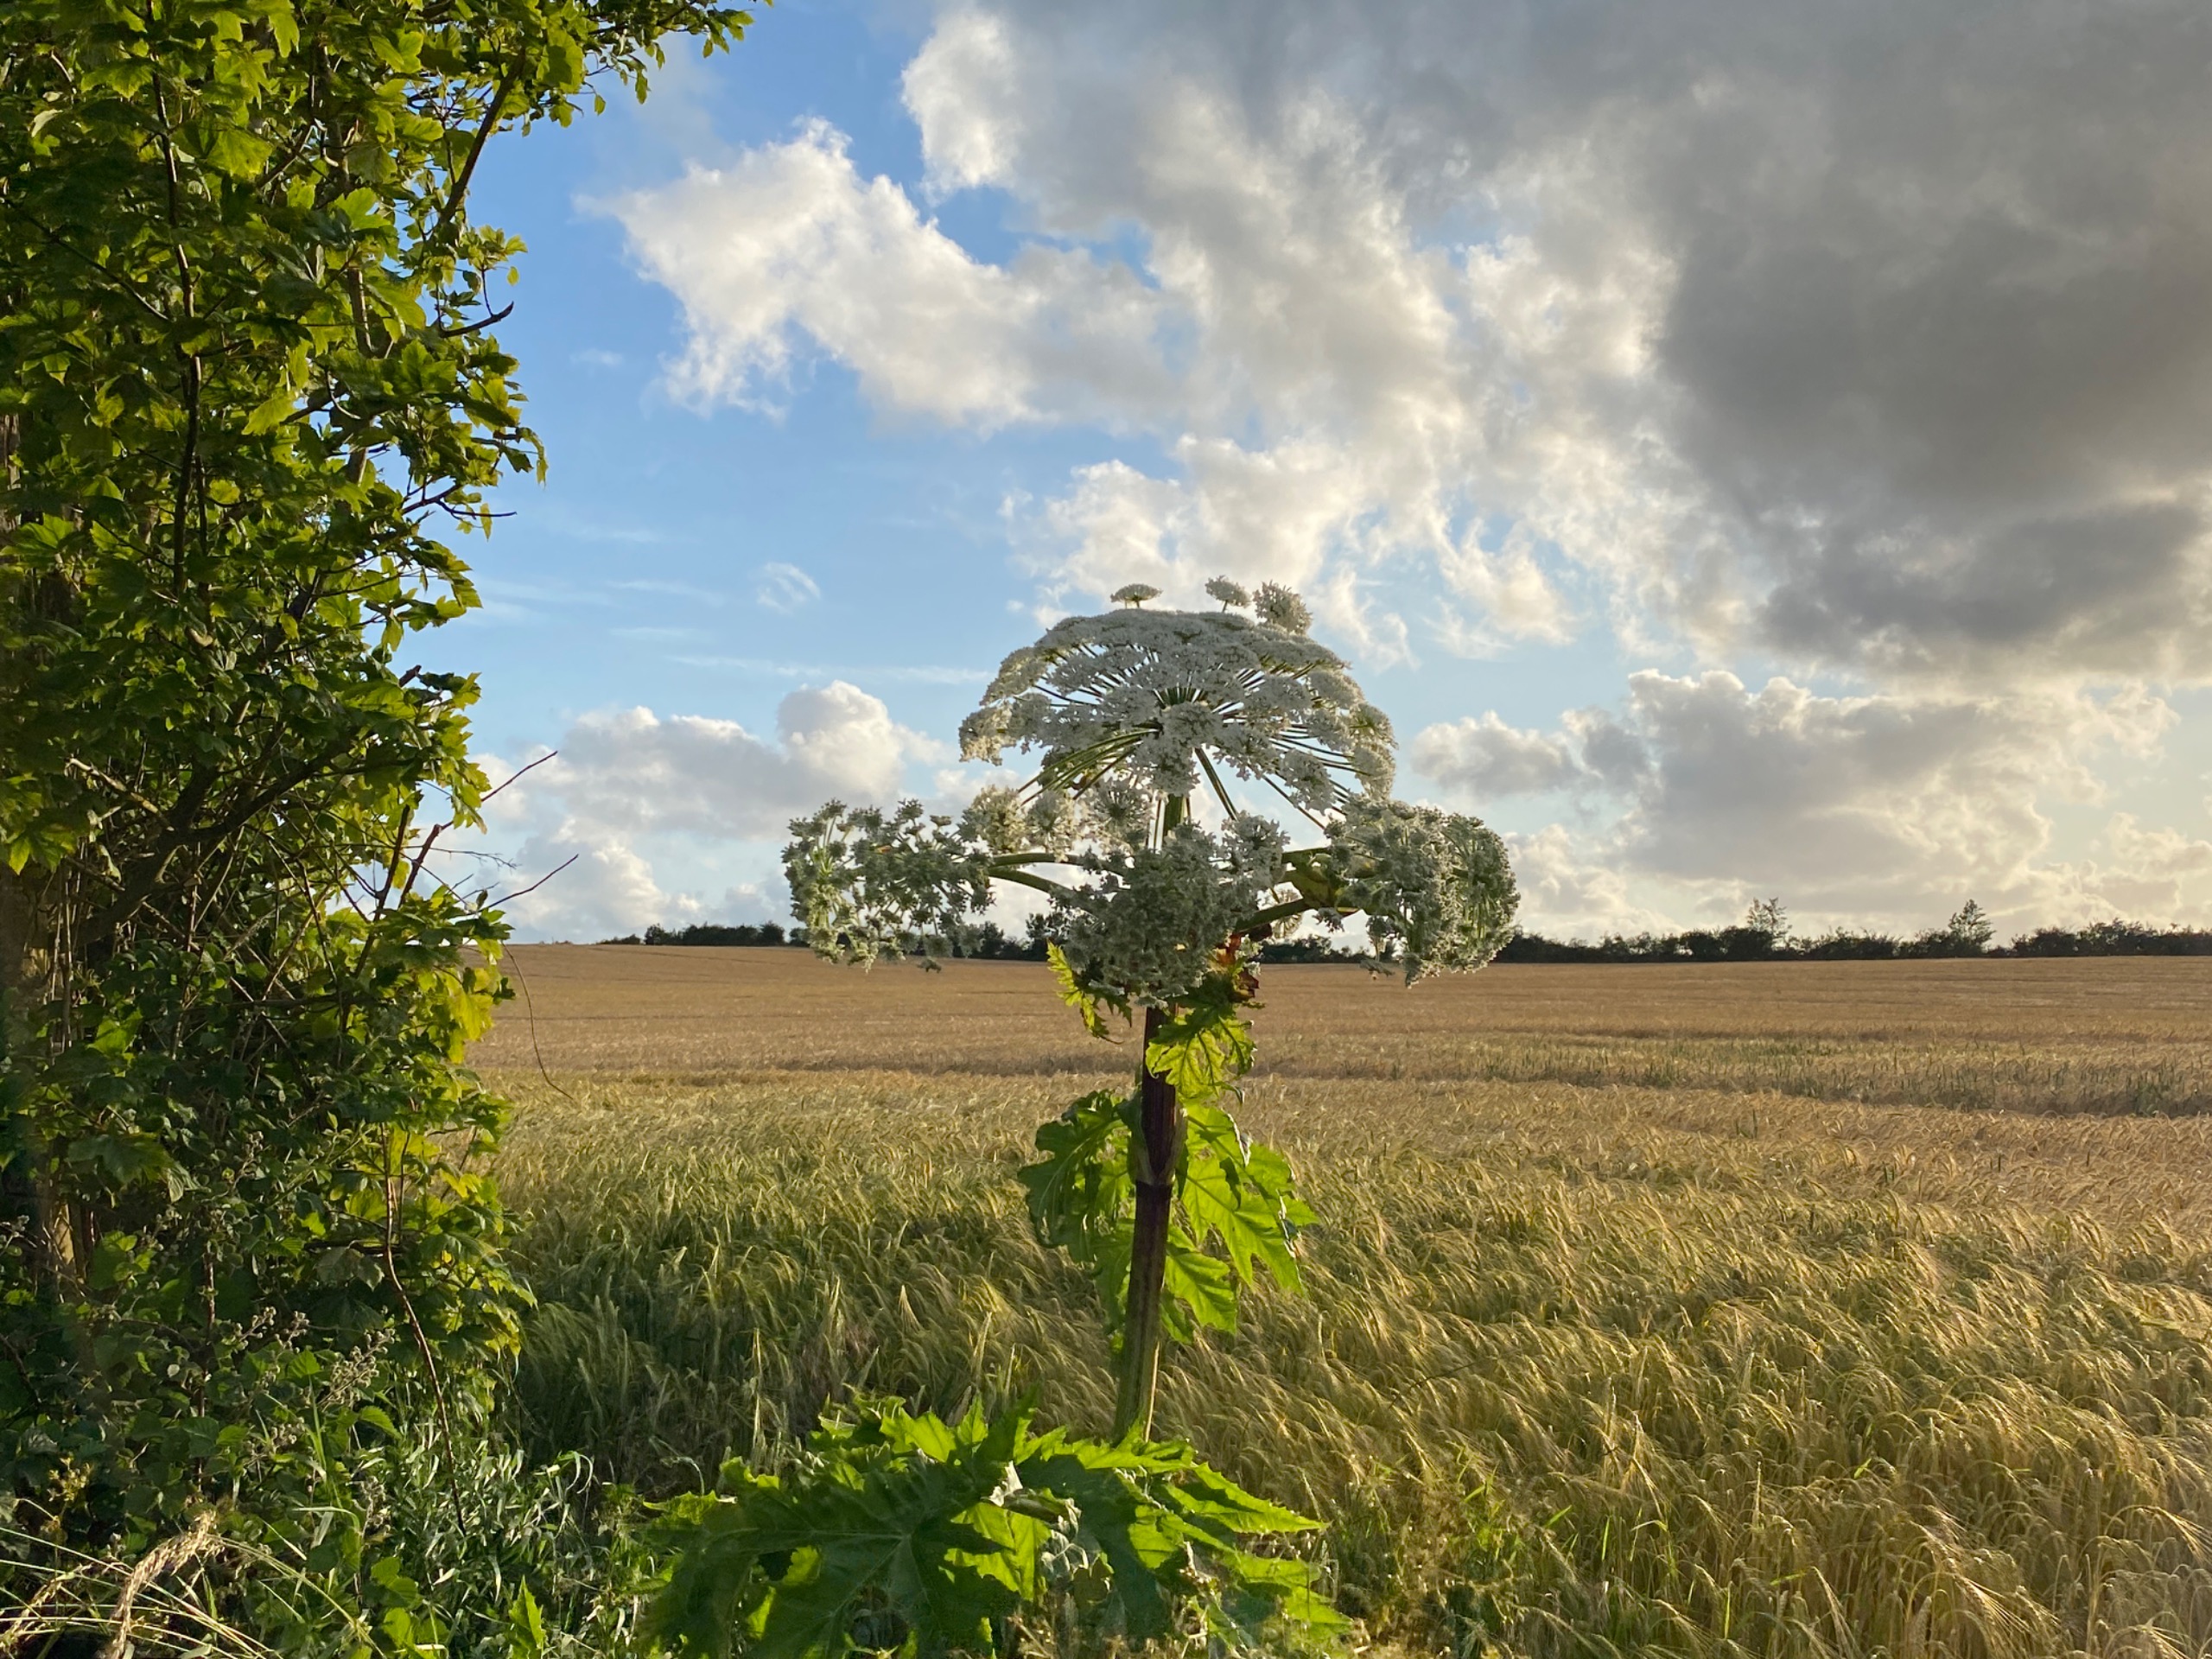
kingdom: Plantae
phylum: Tracheophyta
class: Magnoliopsida
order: Apiales
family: Apiaceae
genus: Heracleum
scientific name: Heracleum mantegazzianum
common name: Kæmpe-bjørneklo
